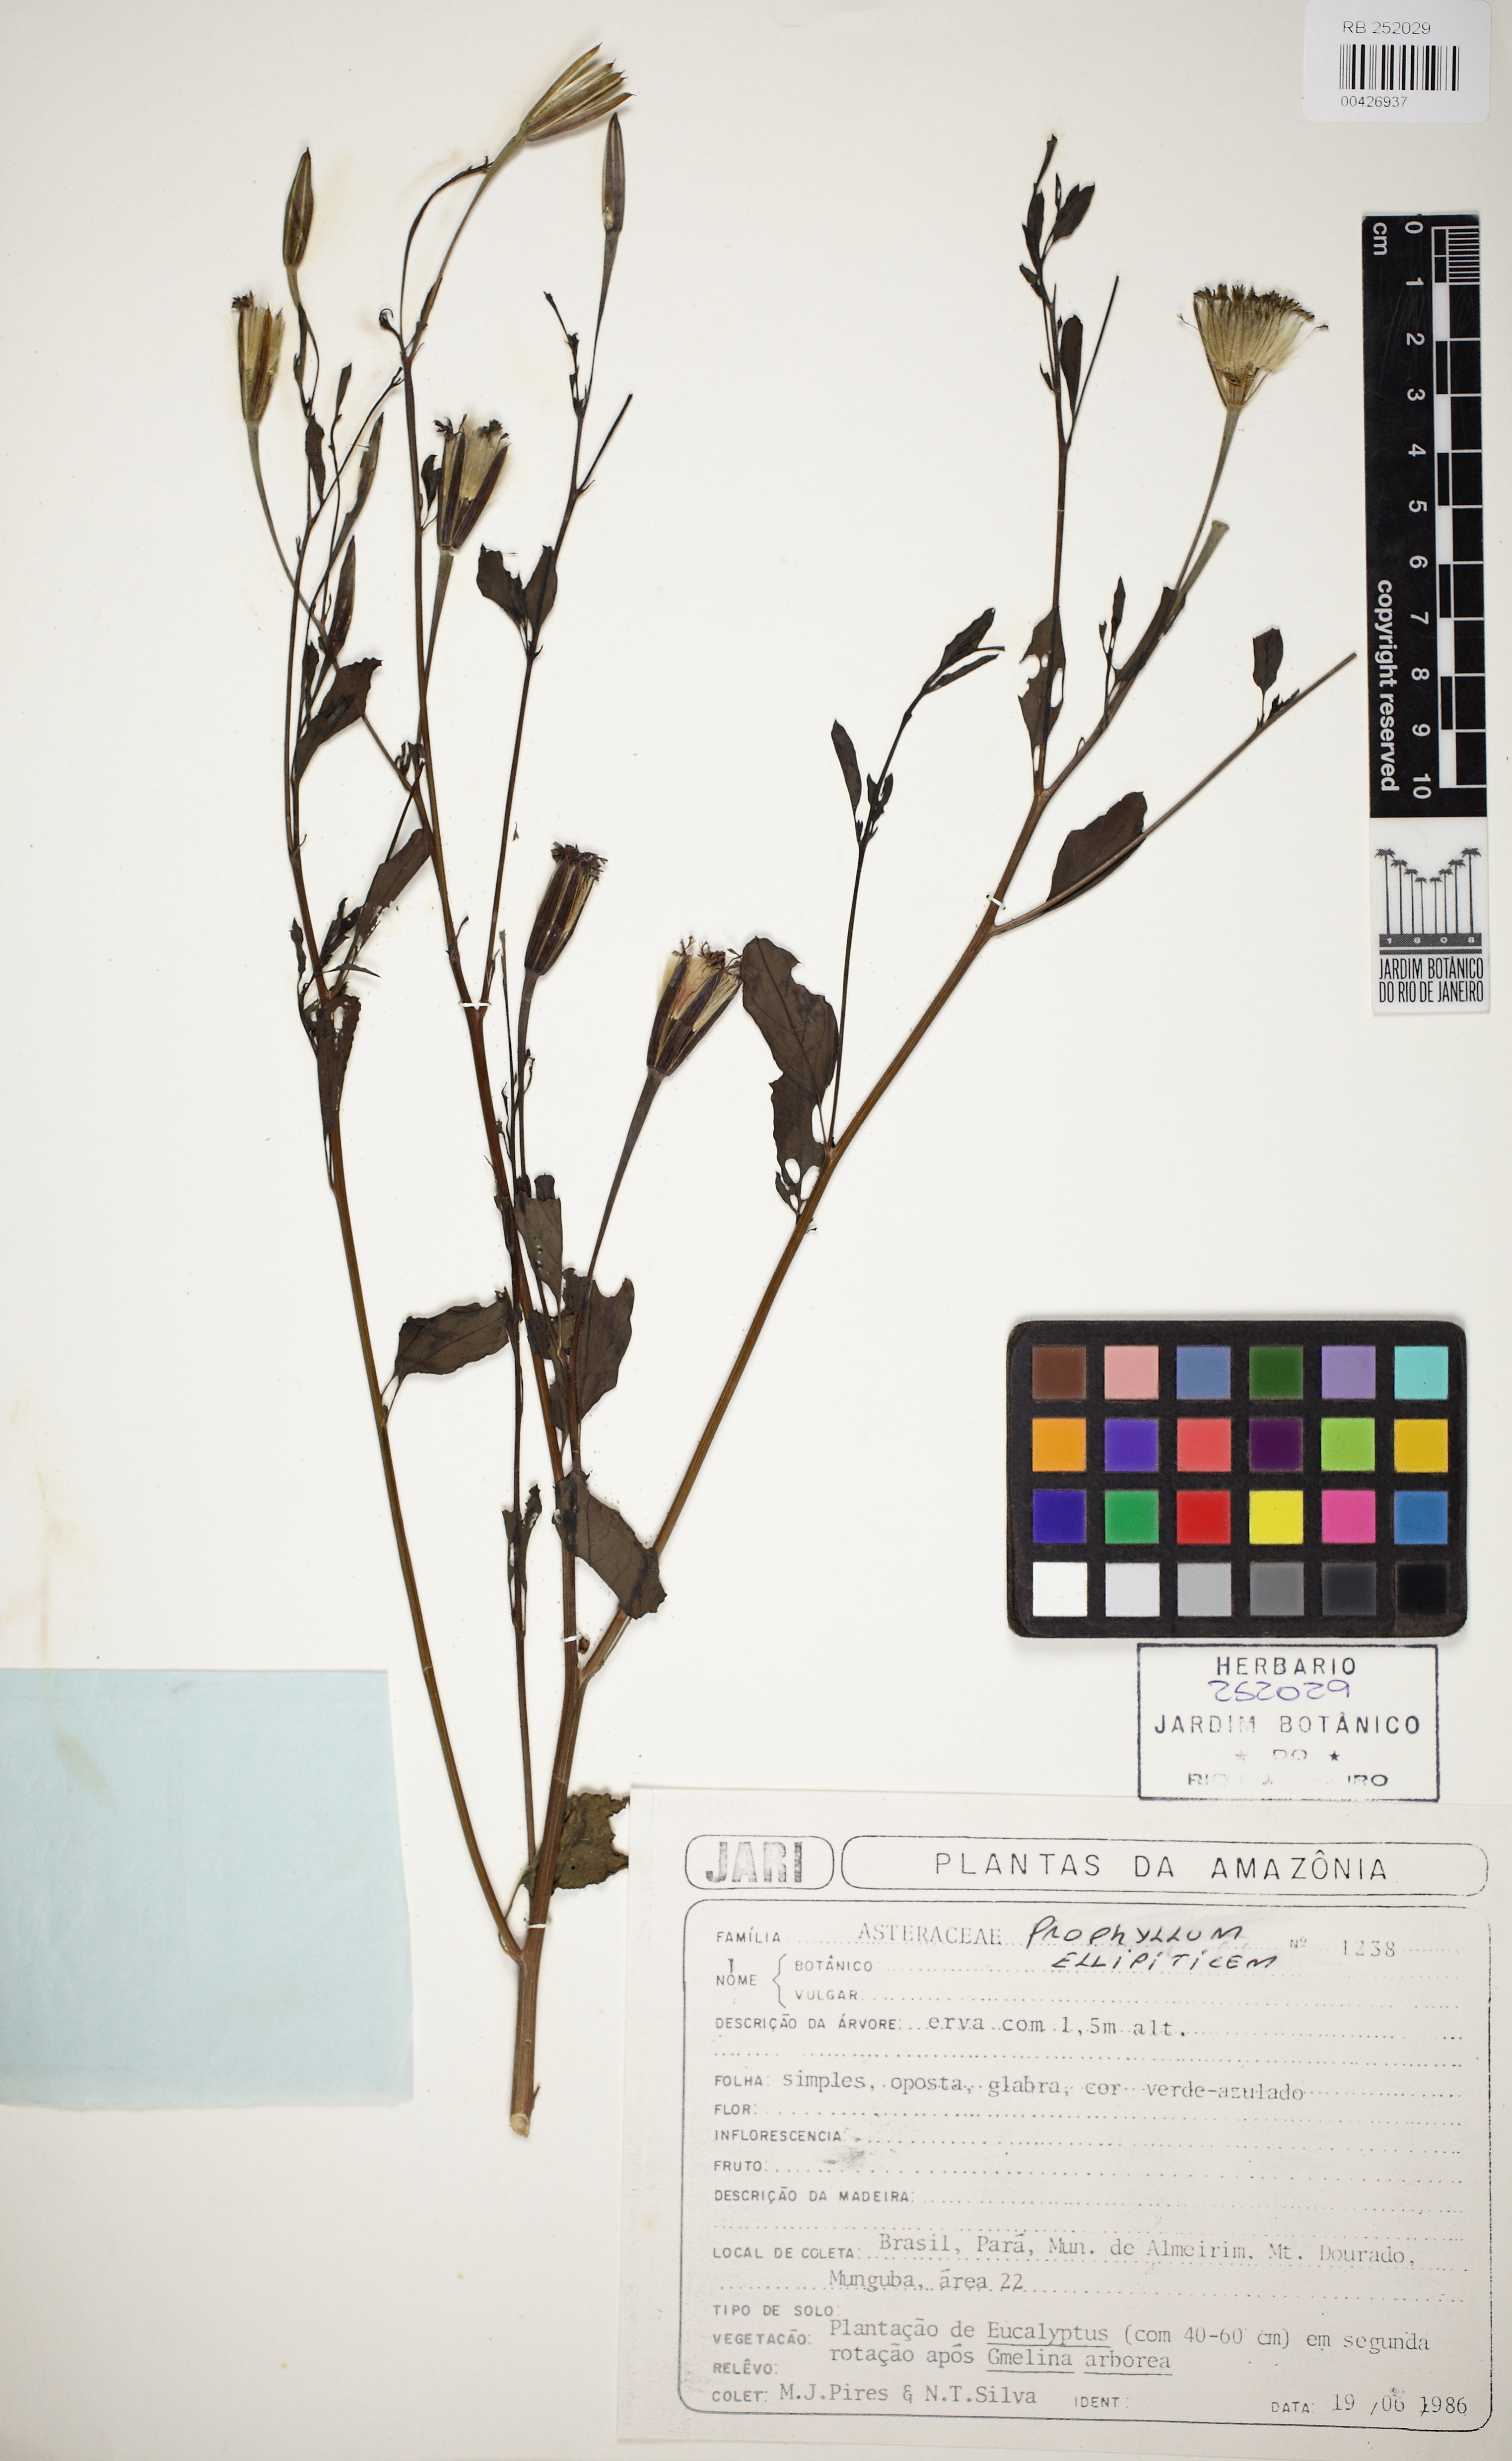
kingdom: Plantae
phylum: Tracheophyta
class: Magnoliopsida
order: Asterales
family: Asteraceae
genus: Porophyllum
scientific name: Porophyllum ruderale
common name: Yerba porosa
